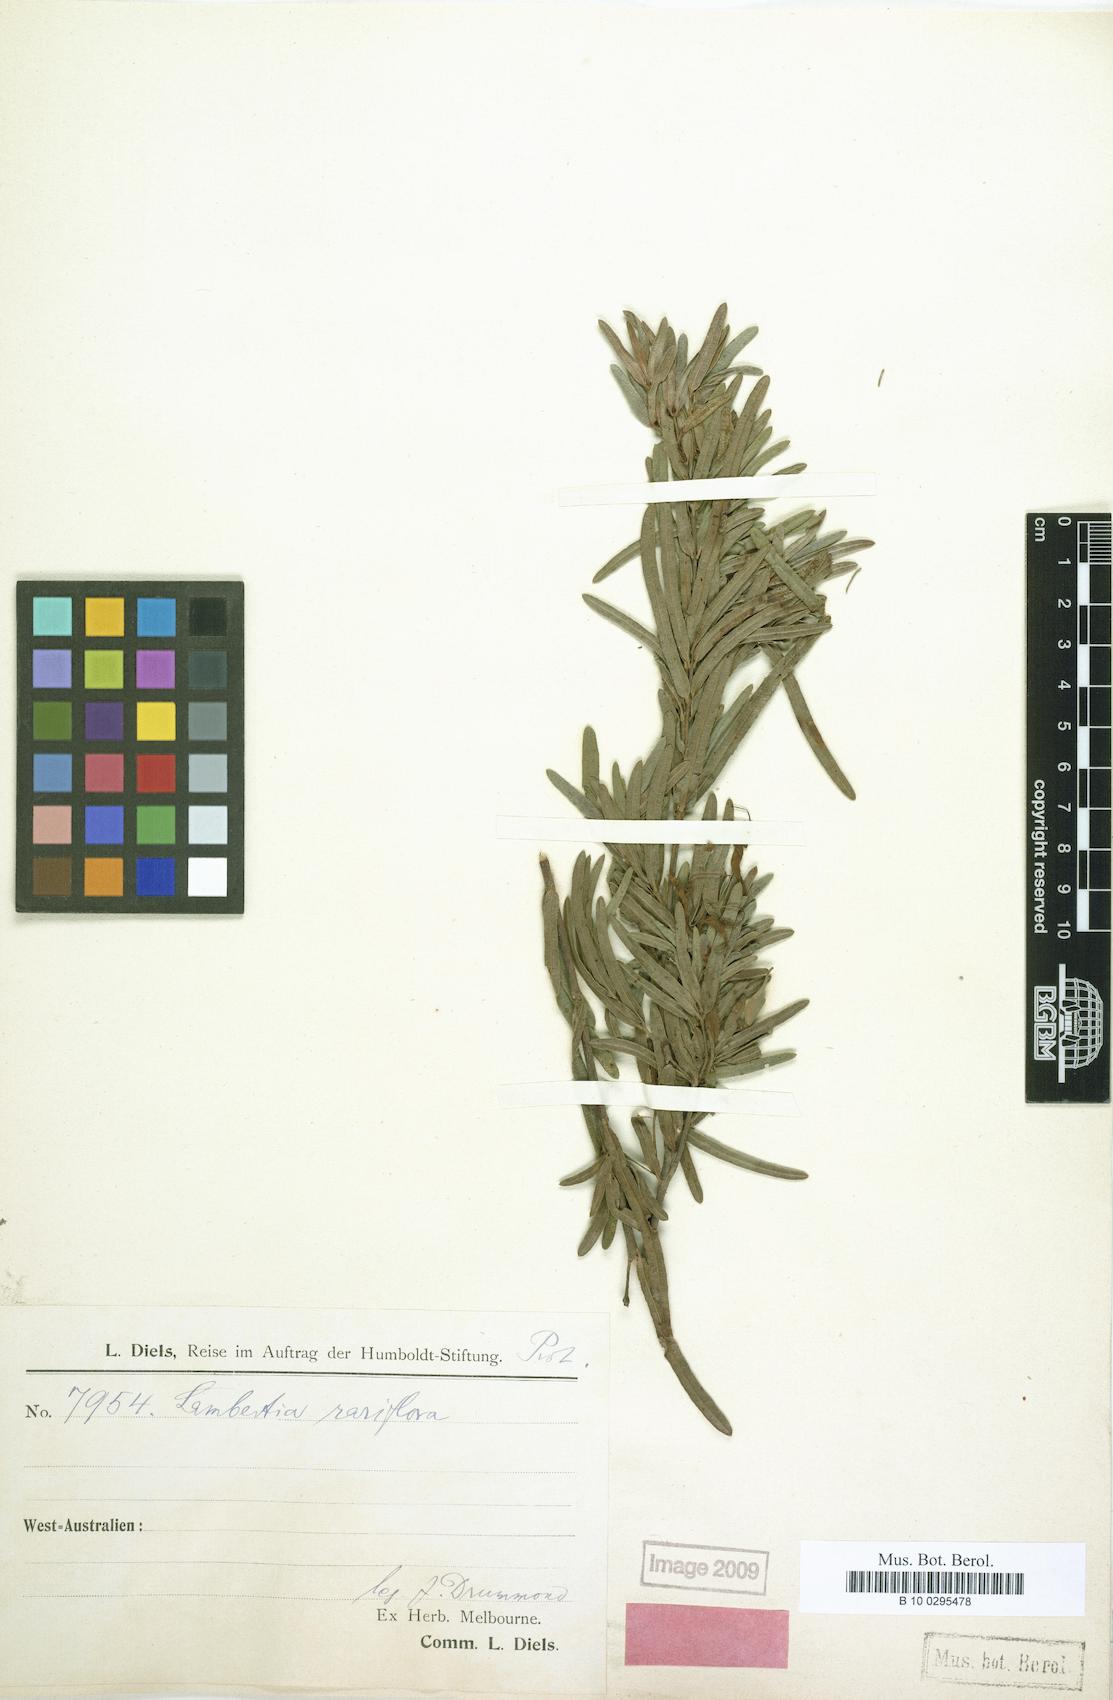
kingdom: Plantae
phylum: Tracheophyta
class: Magnoliopsida
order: Proteales
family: Proteaceae
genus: Lambertia
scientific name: Lambertia rariflora
